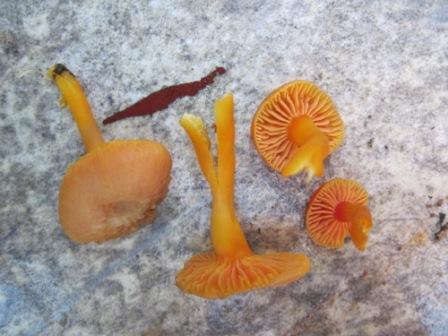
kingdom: Fungi
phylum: Basidiomycota
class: Agaricomycetes
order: Agaricales
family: Hygrophoraceae
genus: Hygrocybe
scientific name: Hygrocybe miniata
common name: mønje-vokshat
